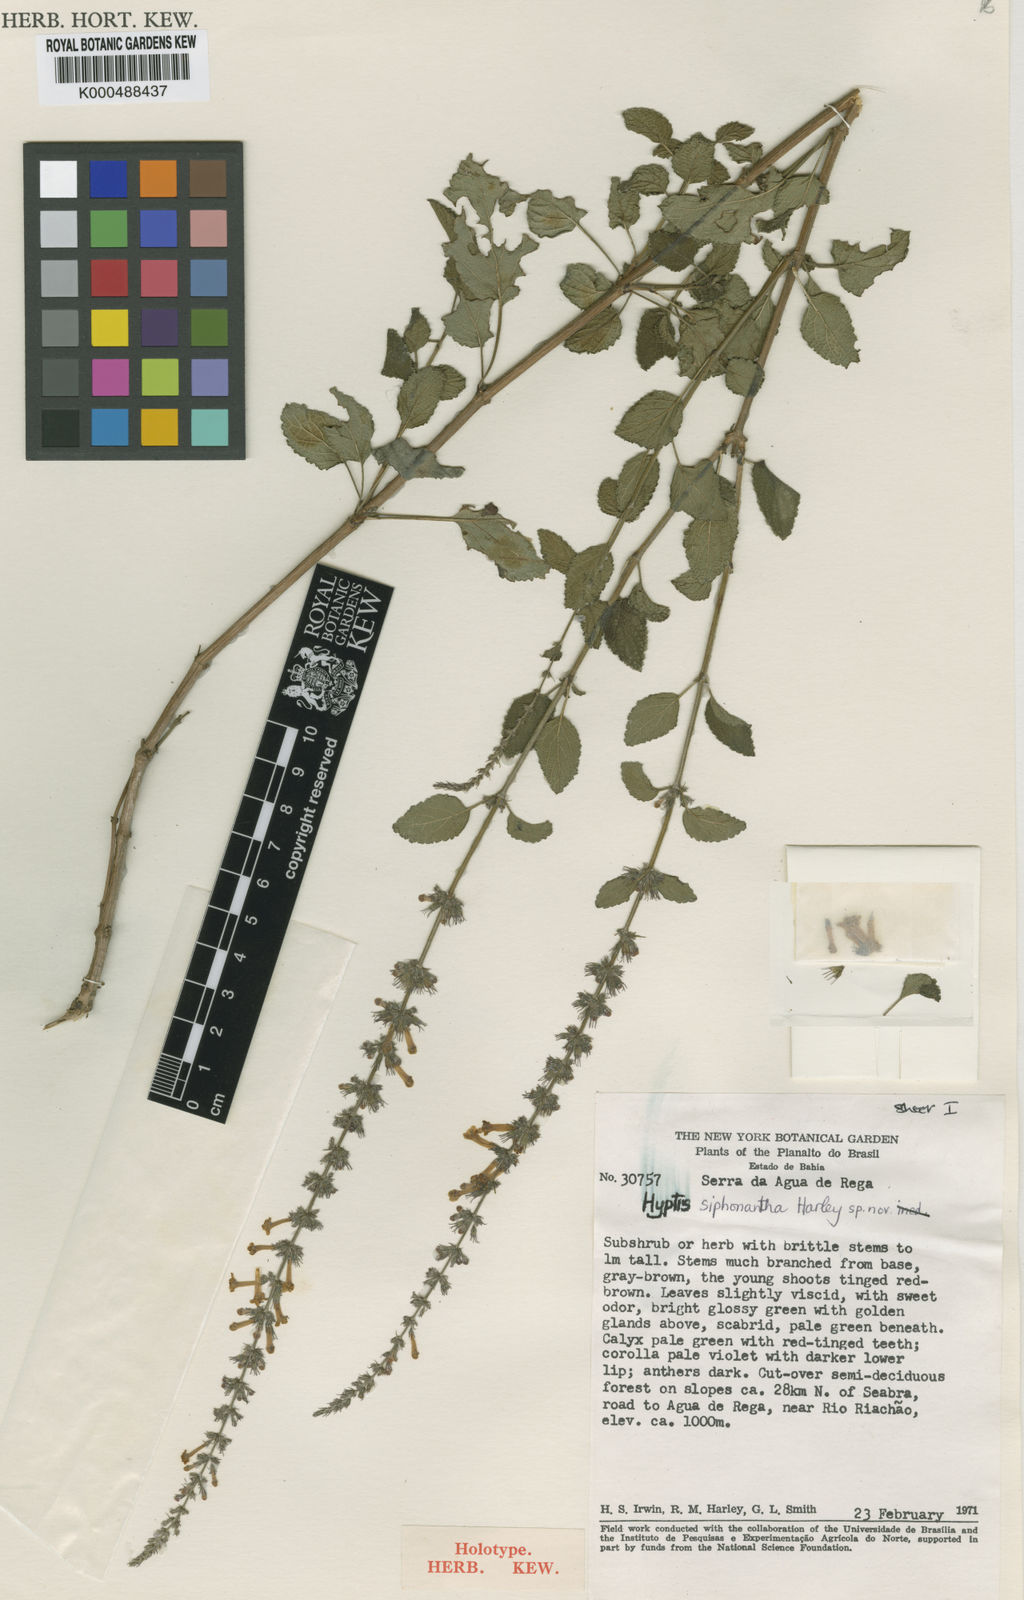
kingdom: Plantae
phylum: Tracheophyta
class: Magnoliopsida
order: Lamiales
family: Lamiaceae
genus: Leptohyptis
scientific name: Leptohyptis siphonantha
